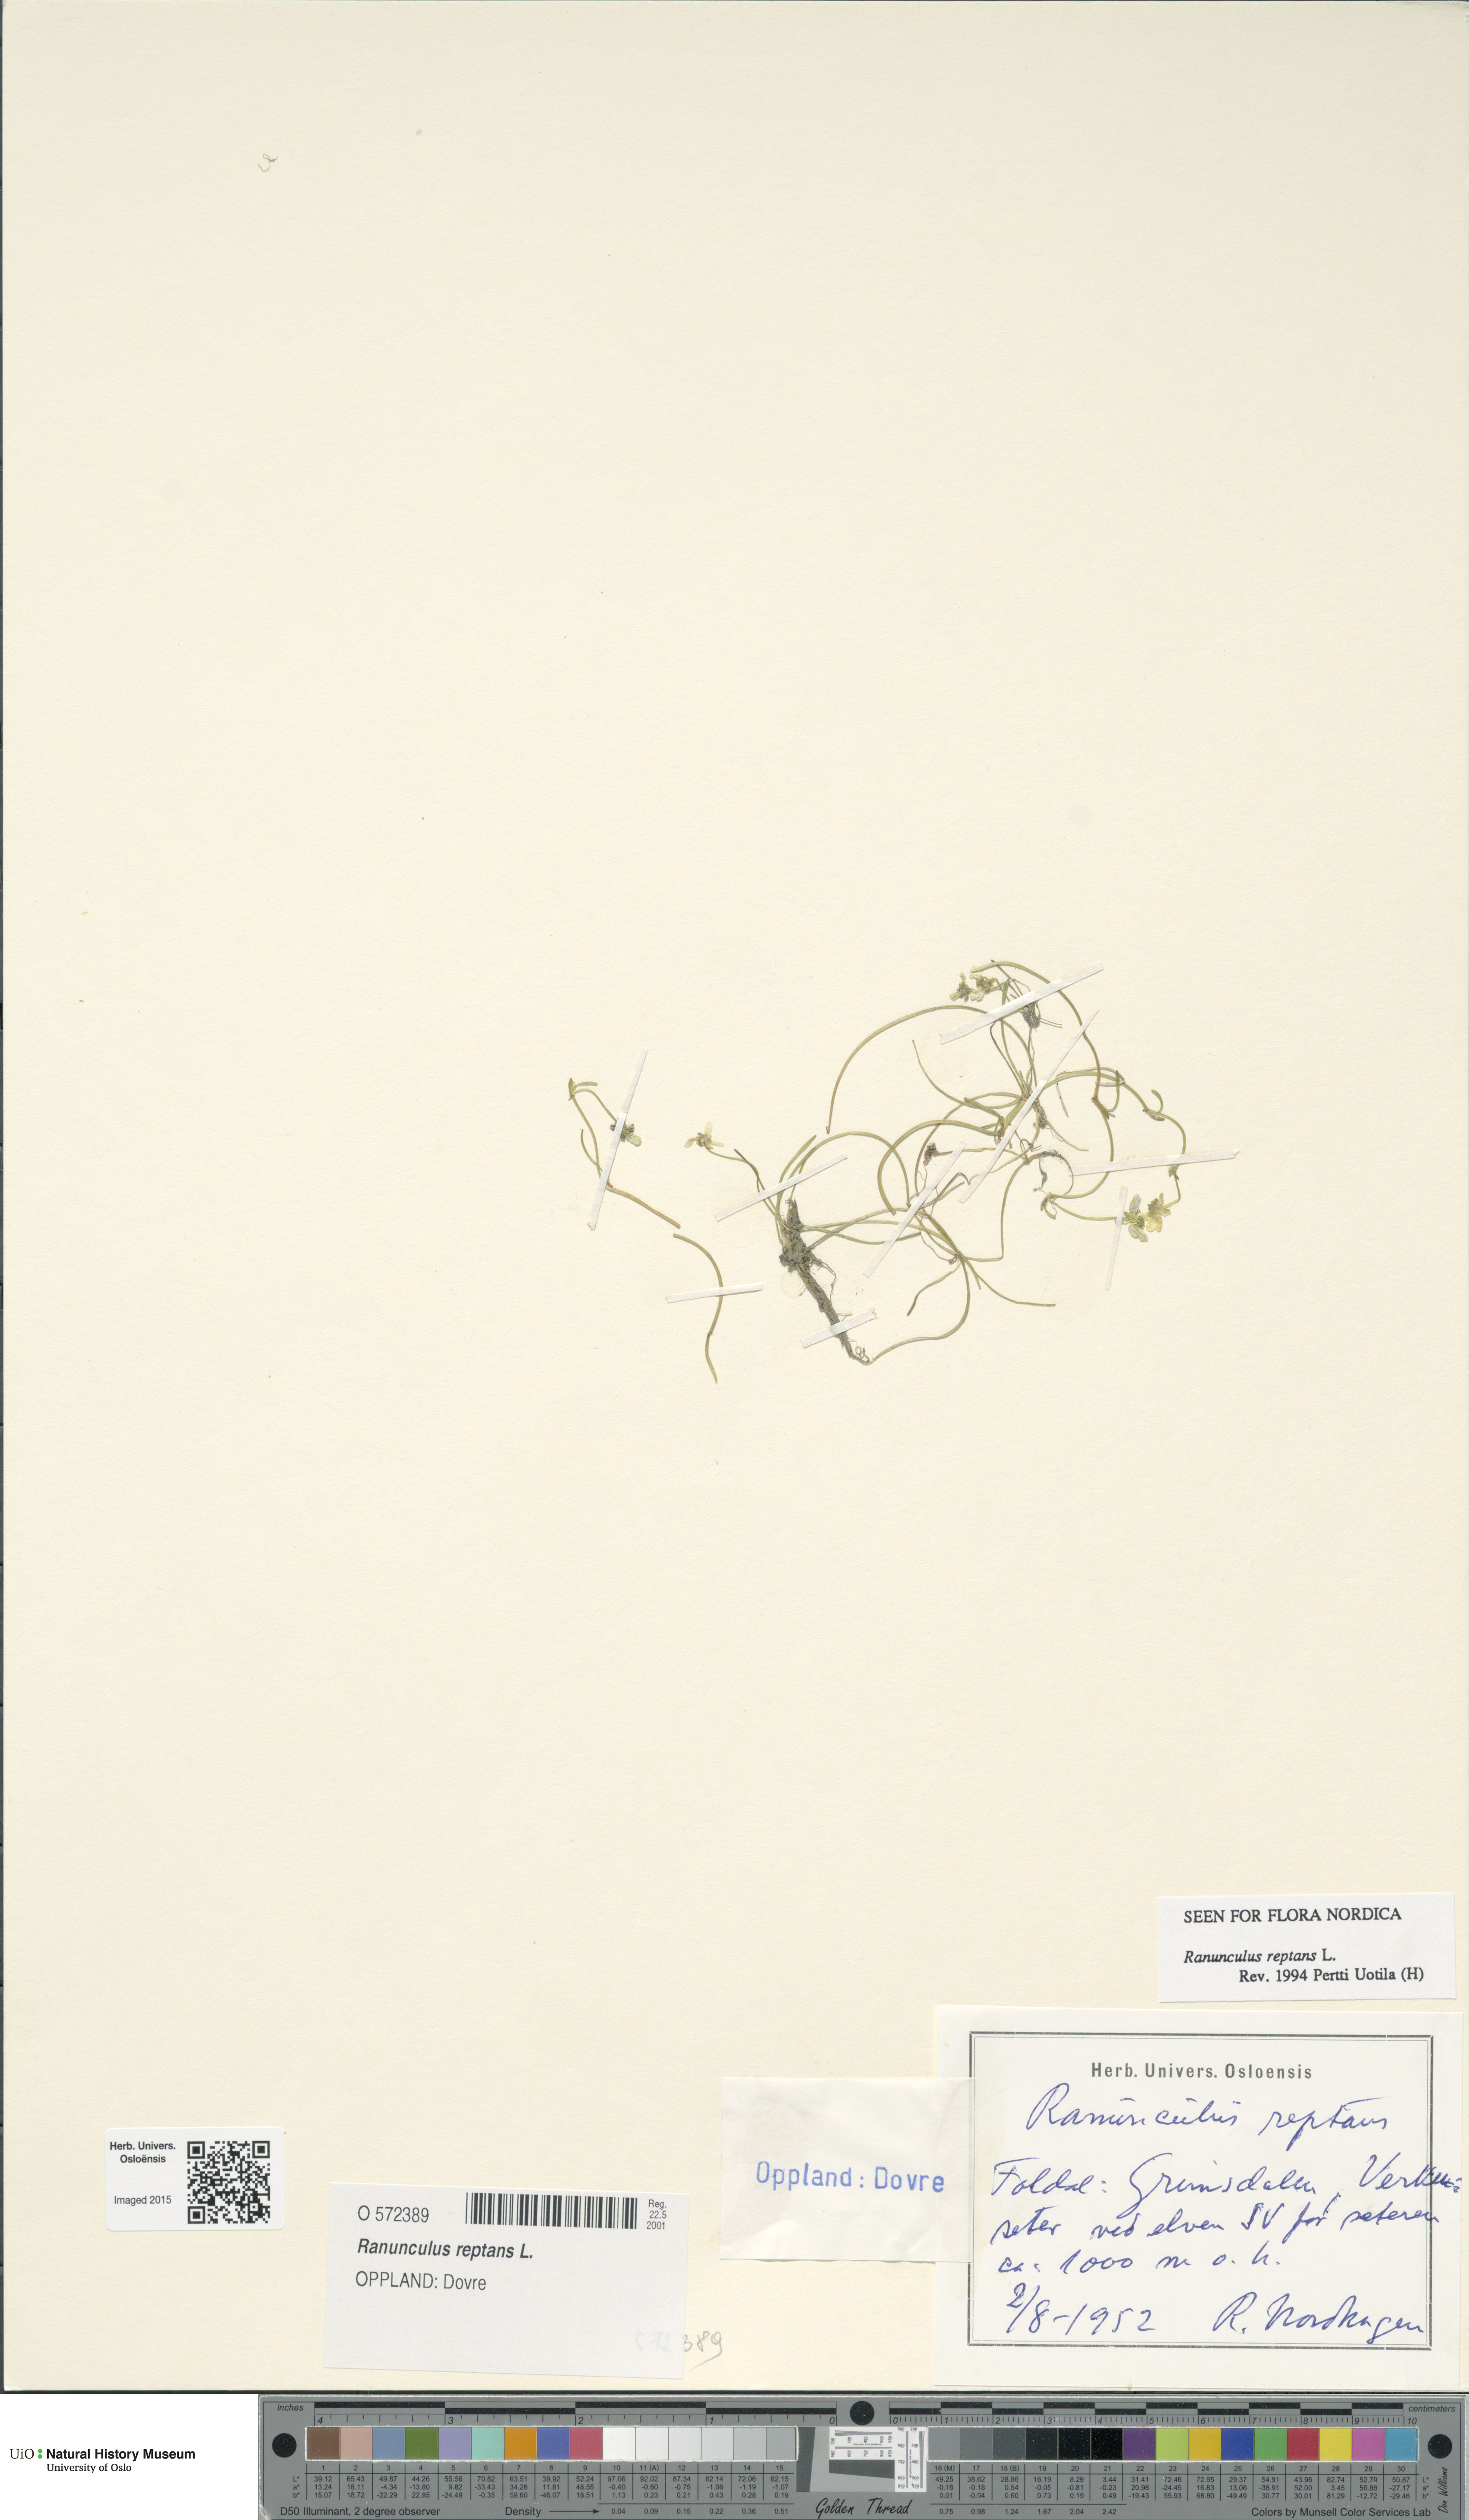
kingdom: Plantae
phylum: Tracheophyta
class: Magnoliopsida
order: Ranunculales
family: Ranunculaceae
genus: Ranunculus
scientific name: Ranunculus reptans
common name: Creeping spearwort
